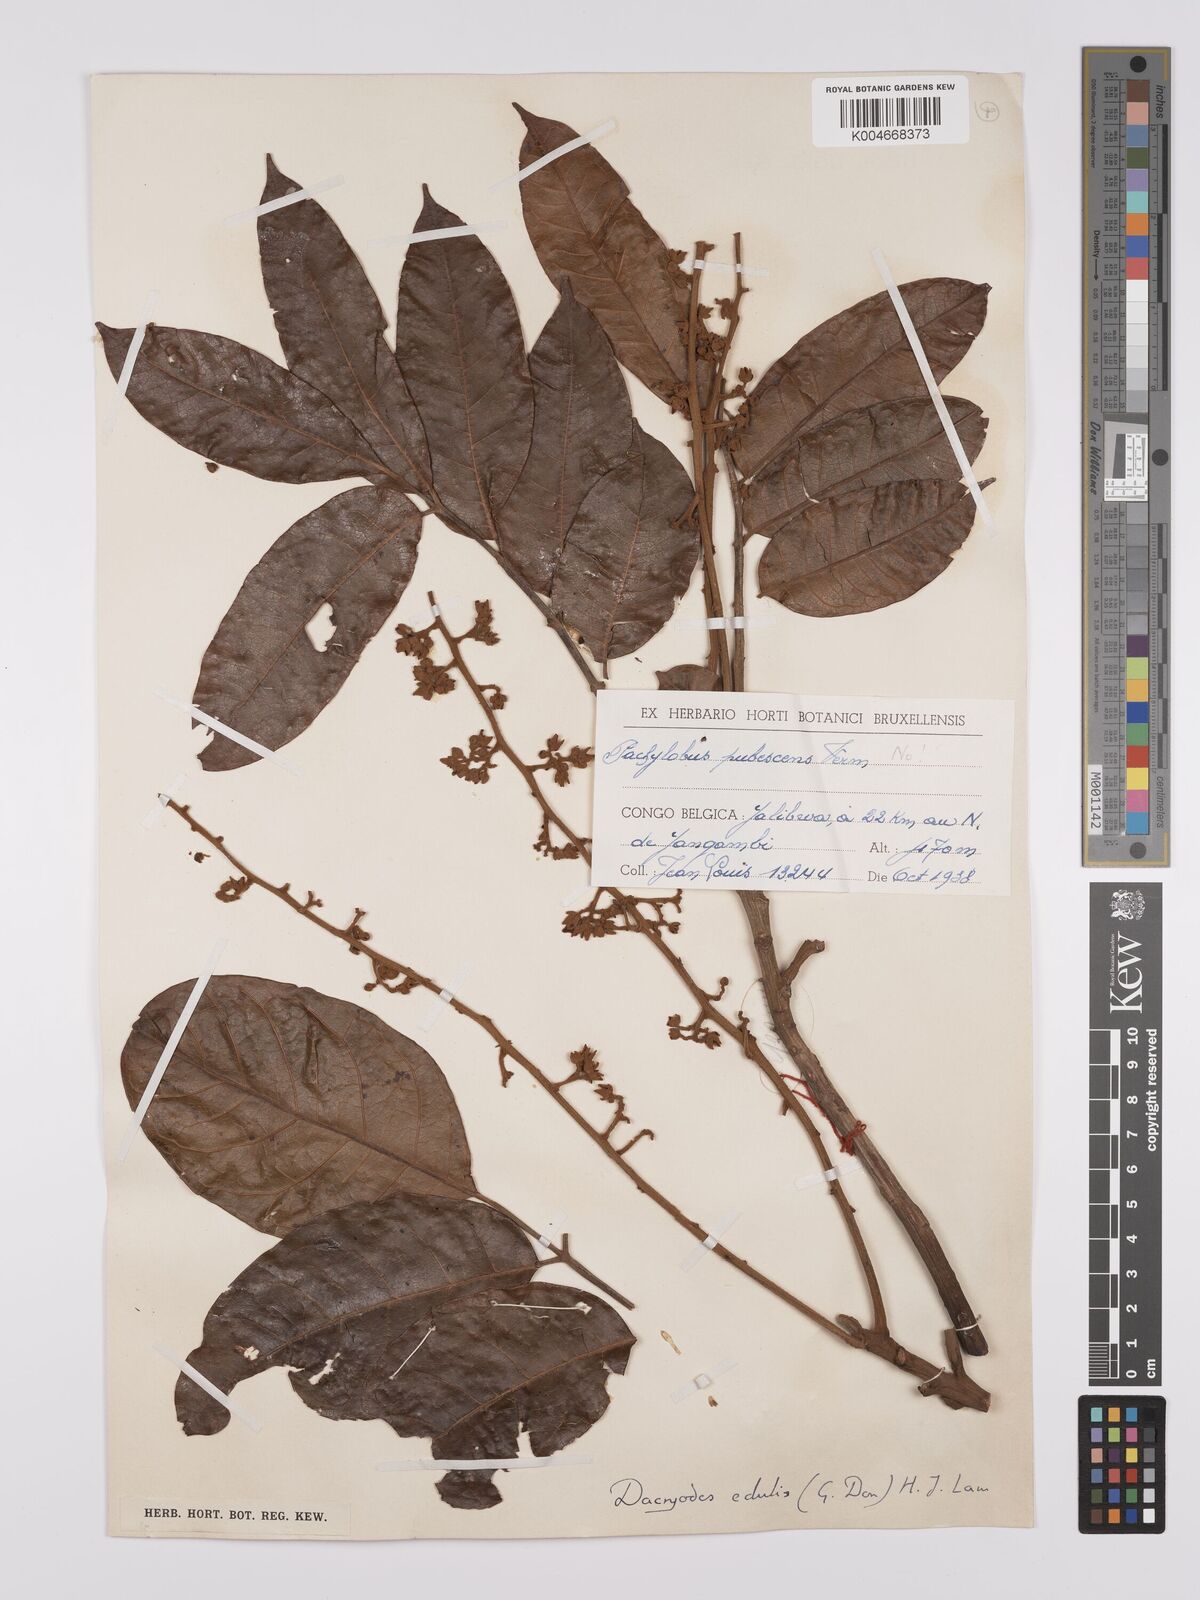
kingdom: Plantae
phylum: Tracheophyta
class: Magnoliopsida
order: Sapindales
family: Burseraceae
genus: Pachylobus
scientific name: Pachylobus edulis
